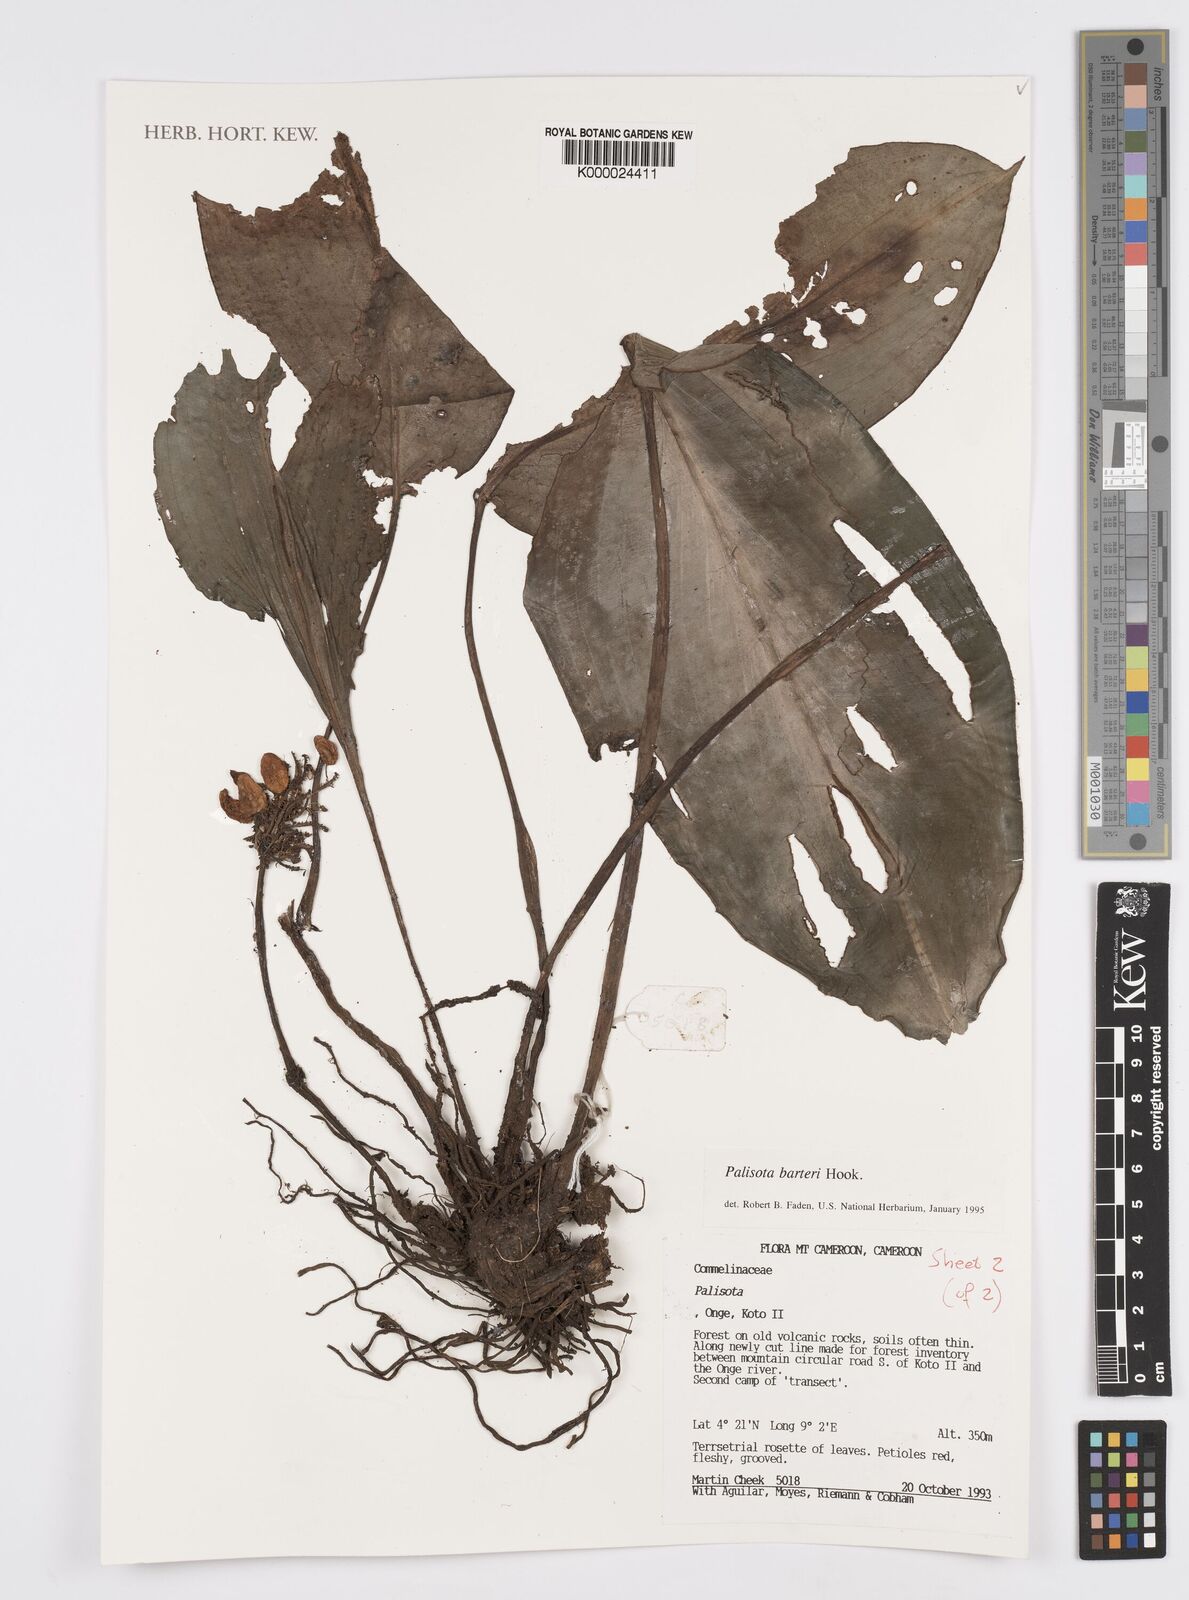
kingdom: Plantae
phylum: Tracheophyta
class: Liliopsida
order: Commelinales
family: Commelinaceae
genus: Palisota
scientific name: Palisota barteri
